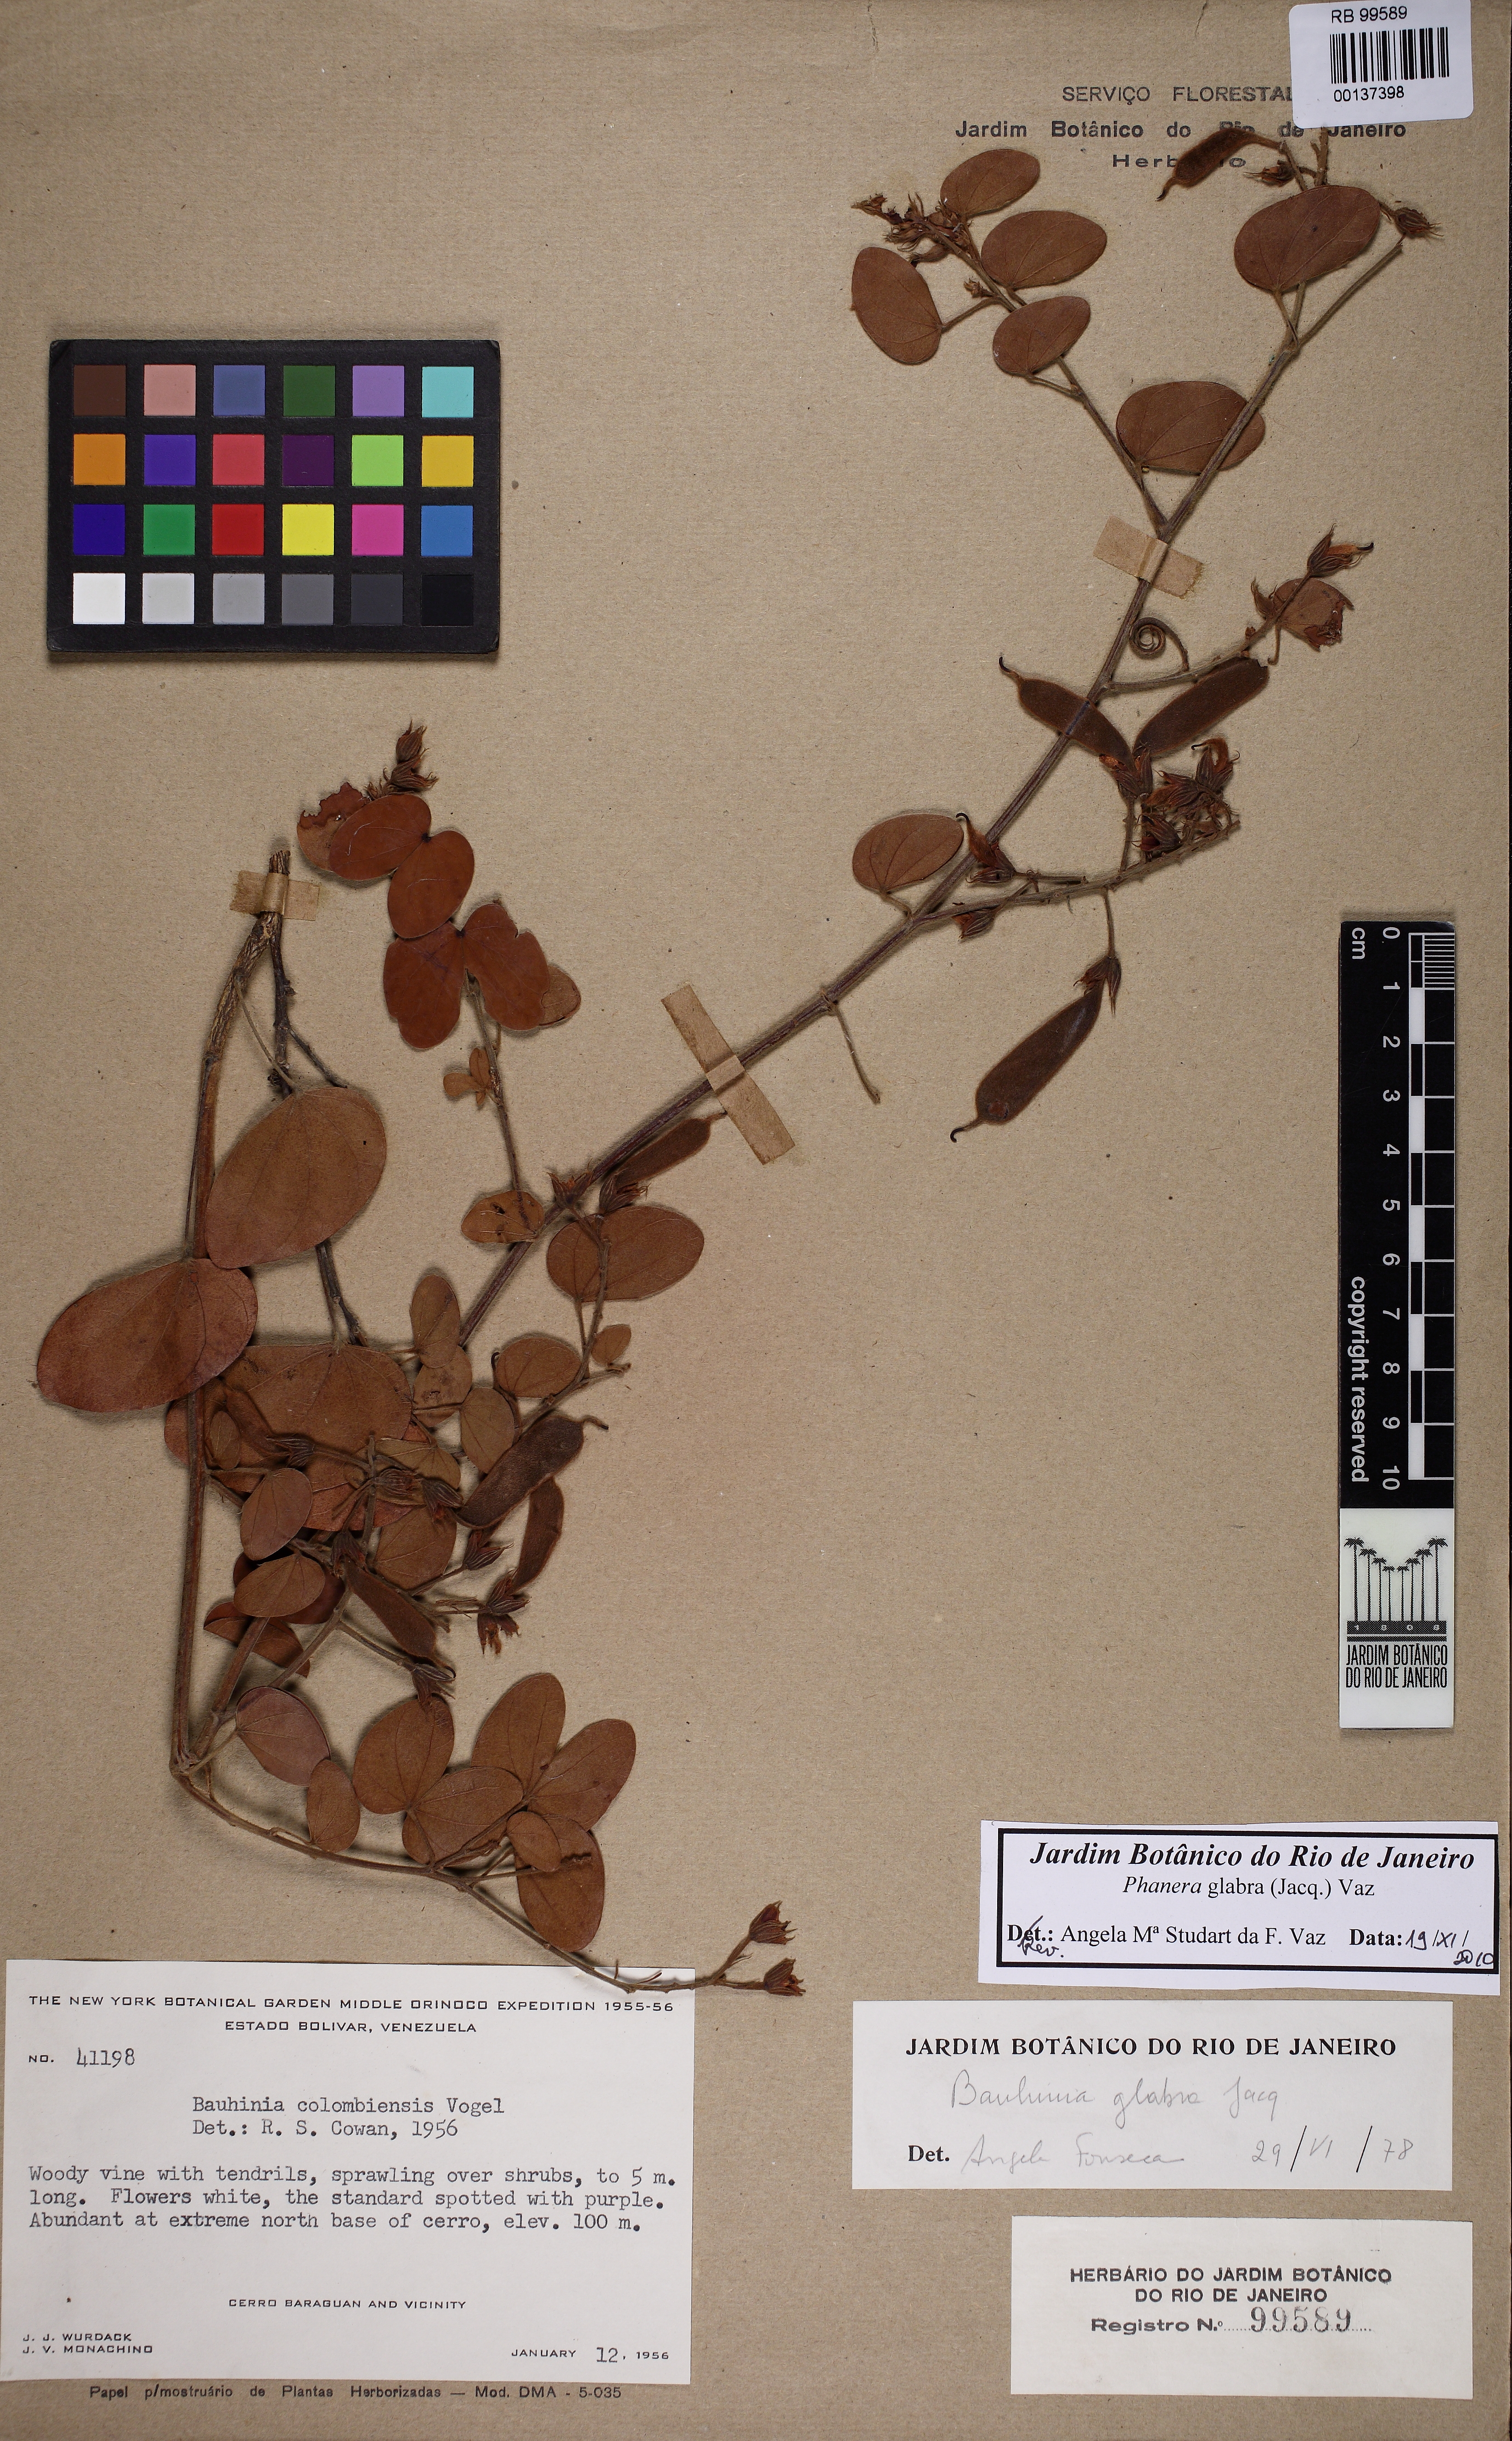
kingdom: Plantae
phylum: Tracheophyta
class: Magnoliopsida
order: Fabales
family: Fabaceae
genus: Schnella
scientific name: Schnella glabra
